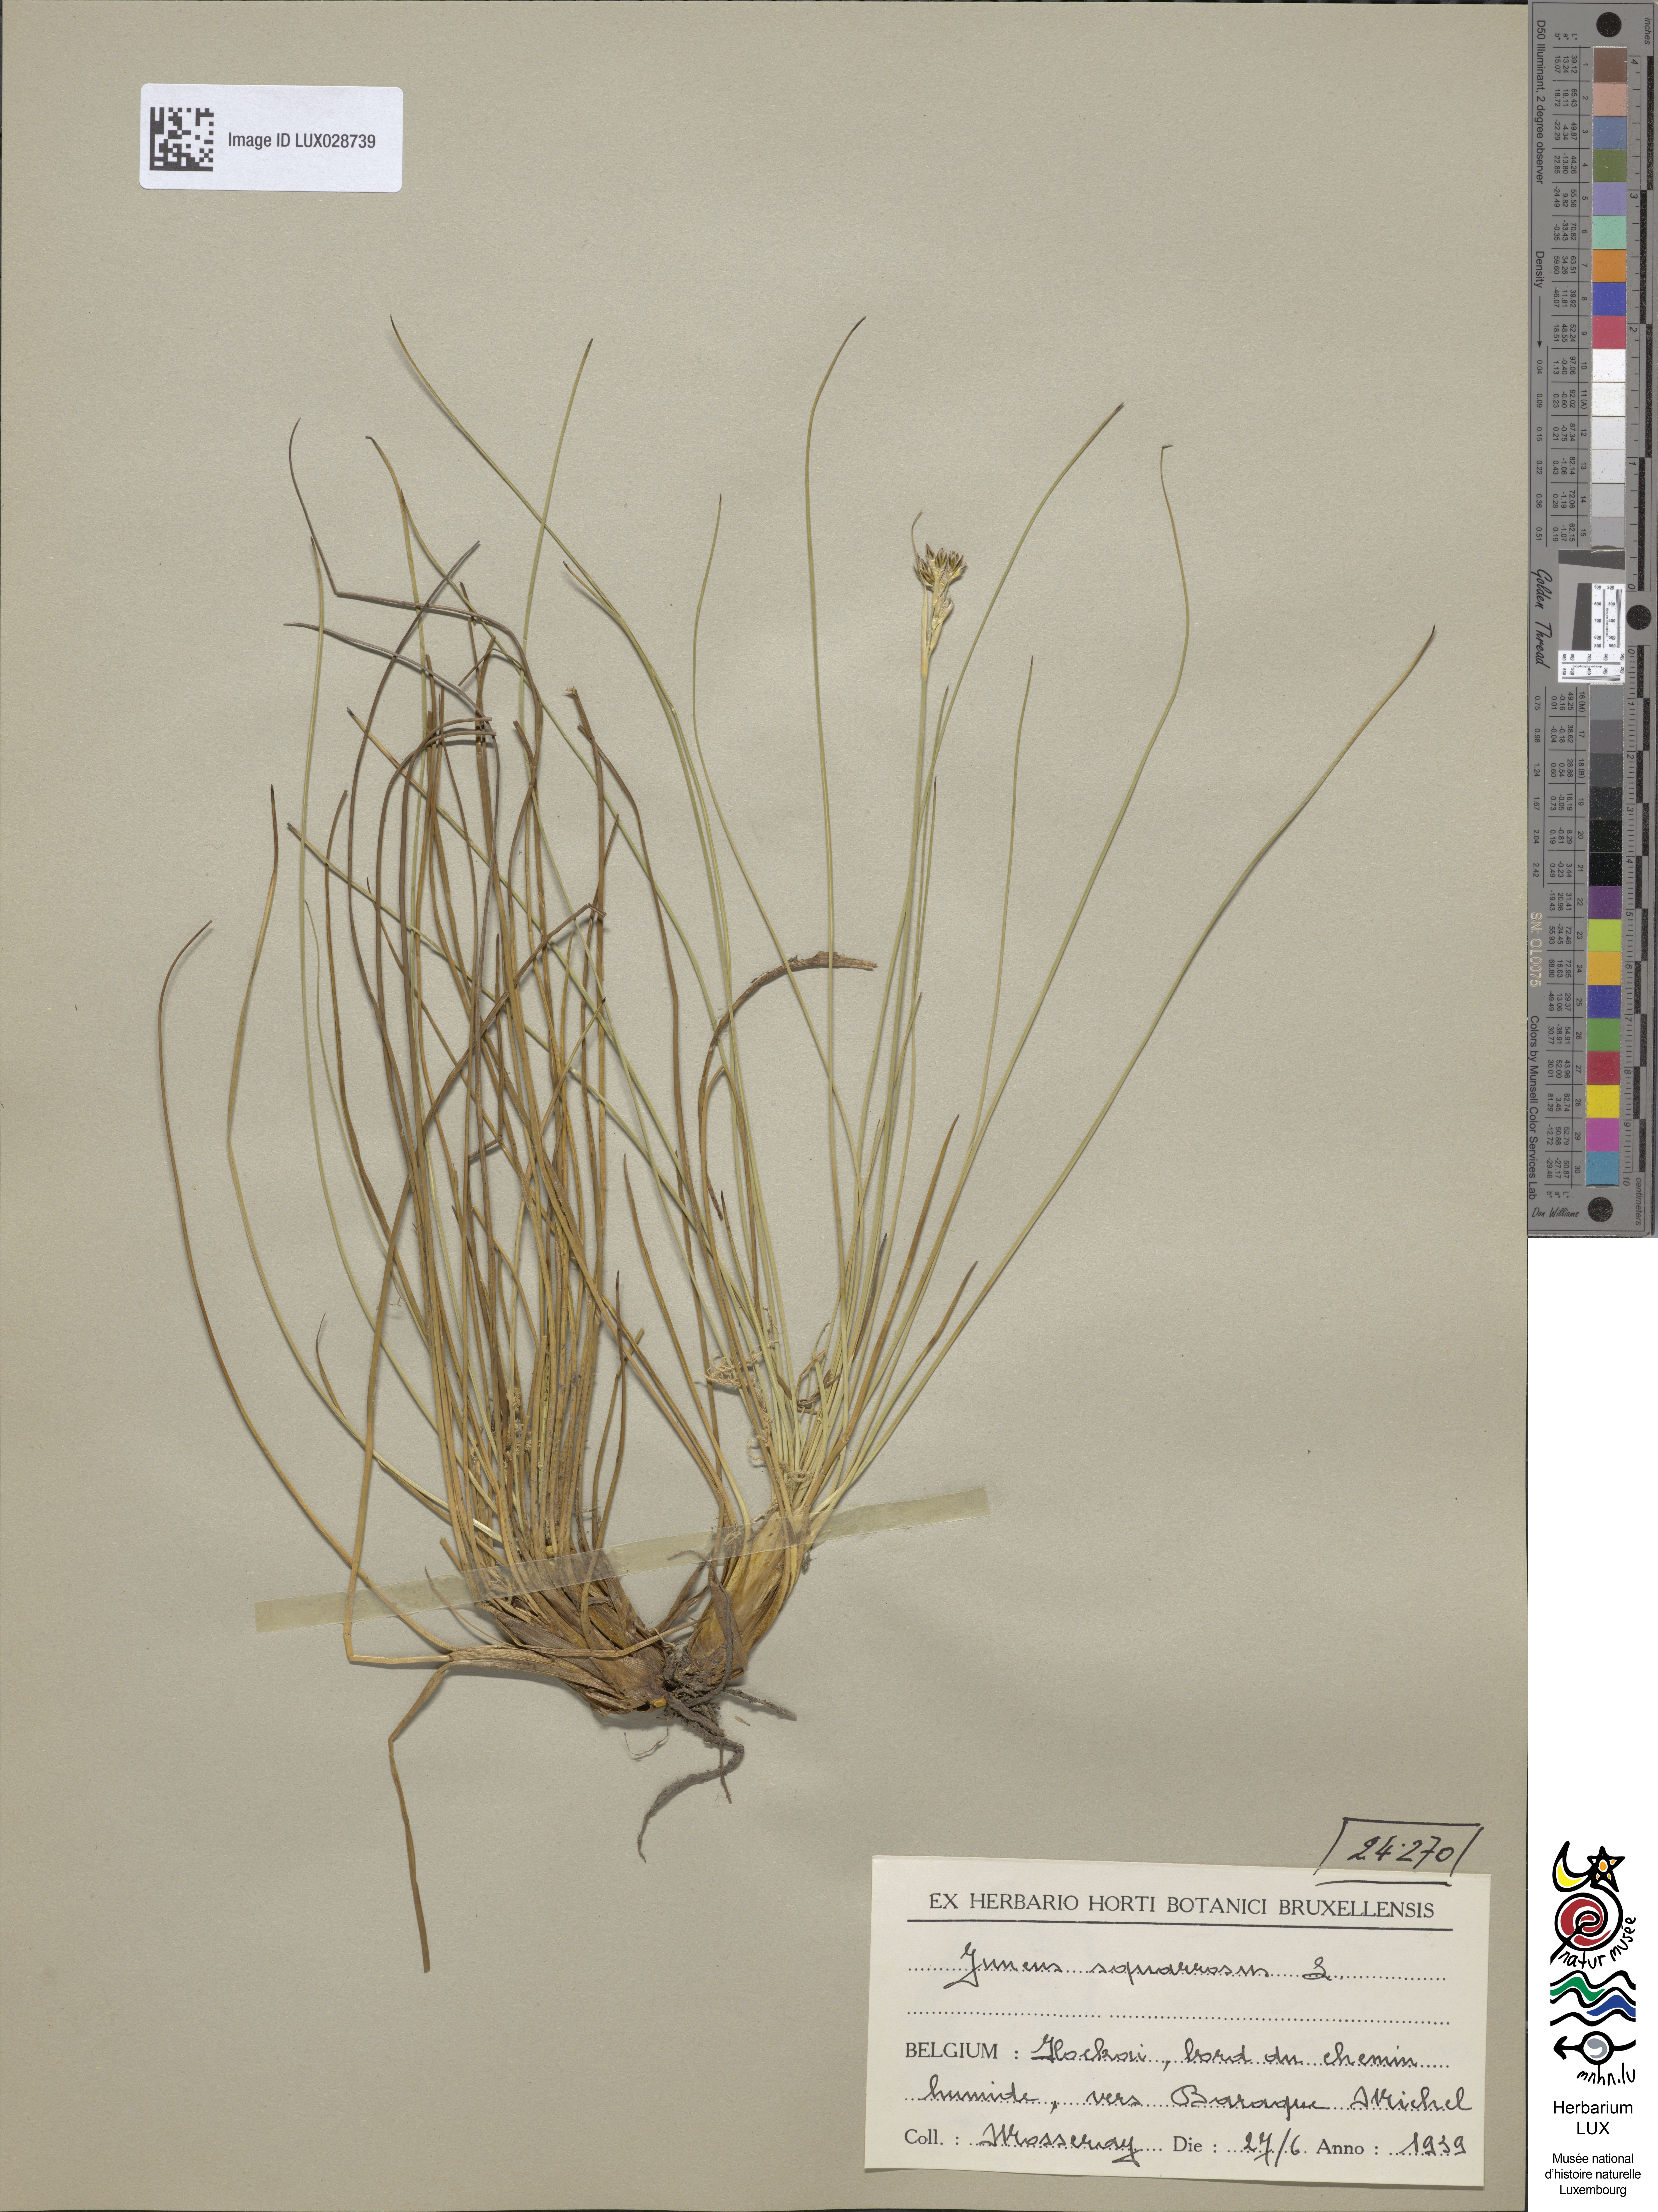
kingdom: Plantae
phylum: Tracheophyta
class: Liliopsida
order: Poales
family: Juncaceae
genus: Juncus
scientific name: Juncus squarrosus
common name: Heath rush
